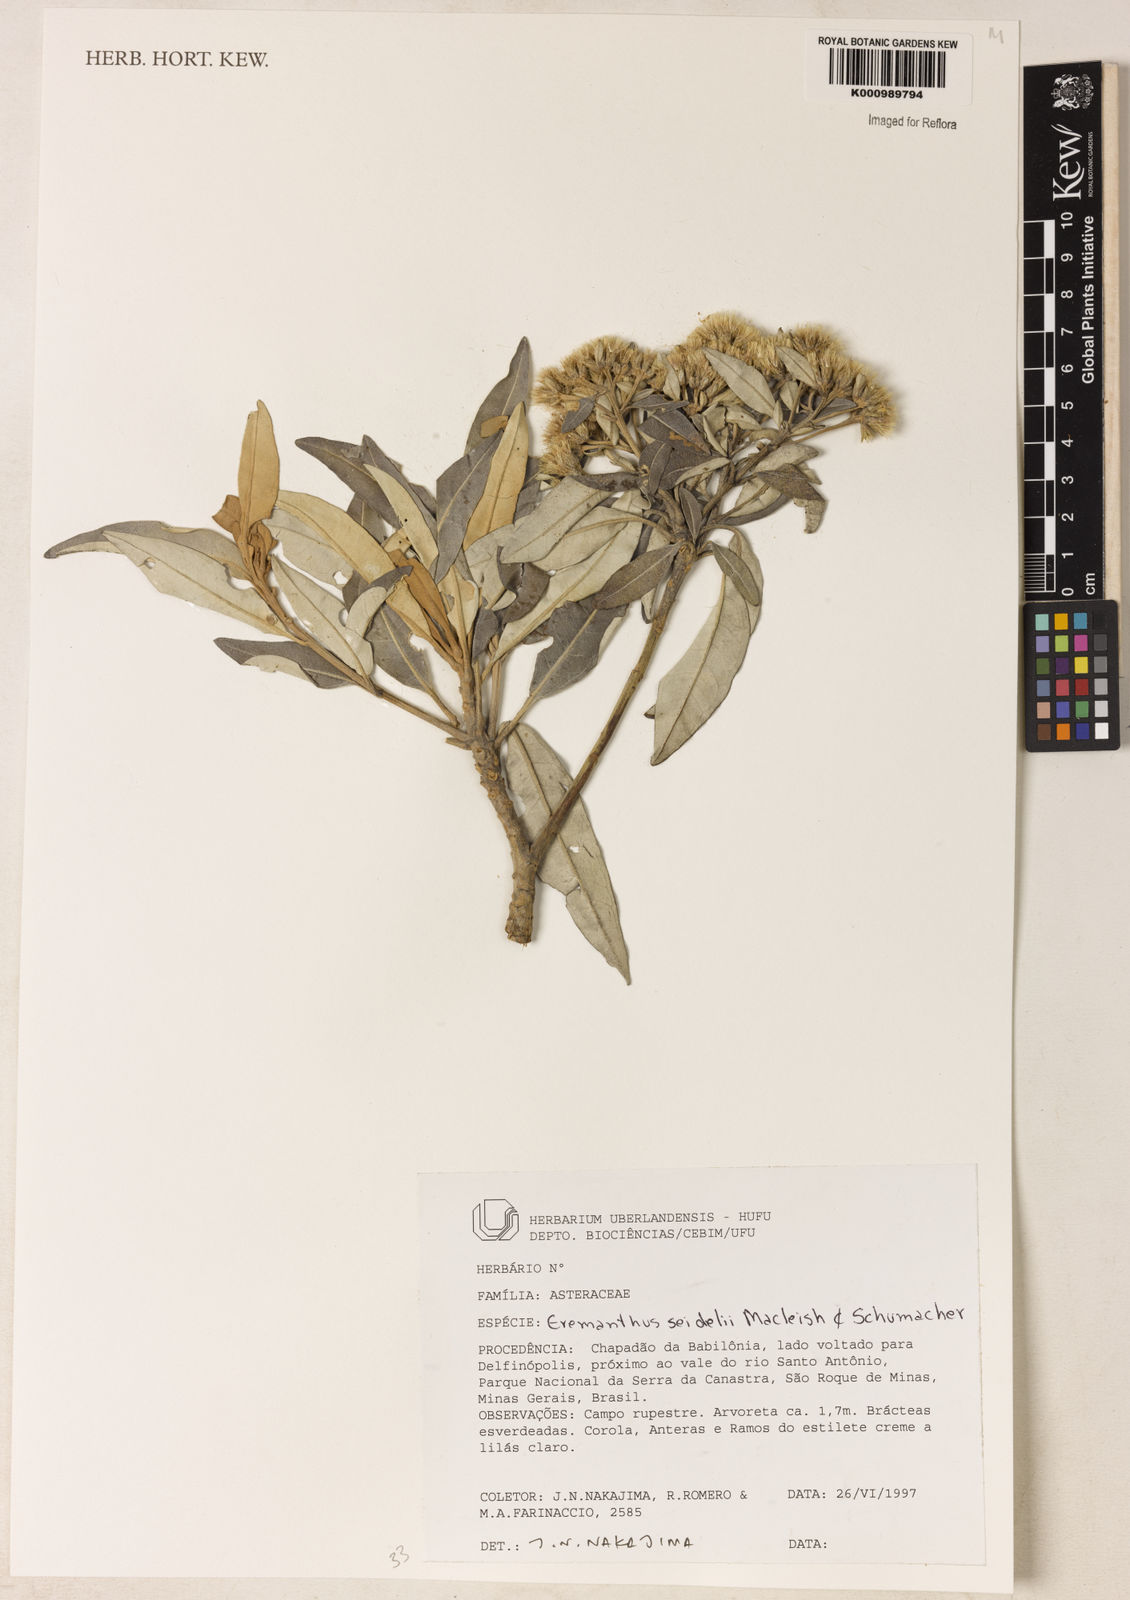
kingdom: Plantae
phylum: Tracheophyta
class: Magnoliopsida
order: Asterales
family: Asteraceae
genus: Eremanthus
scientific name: Eremanthus elaeagnus
